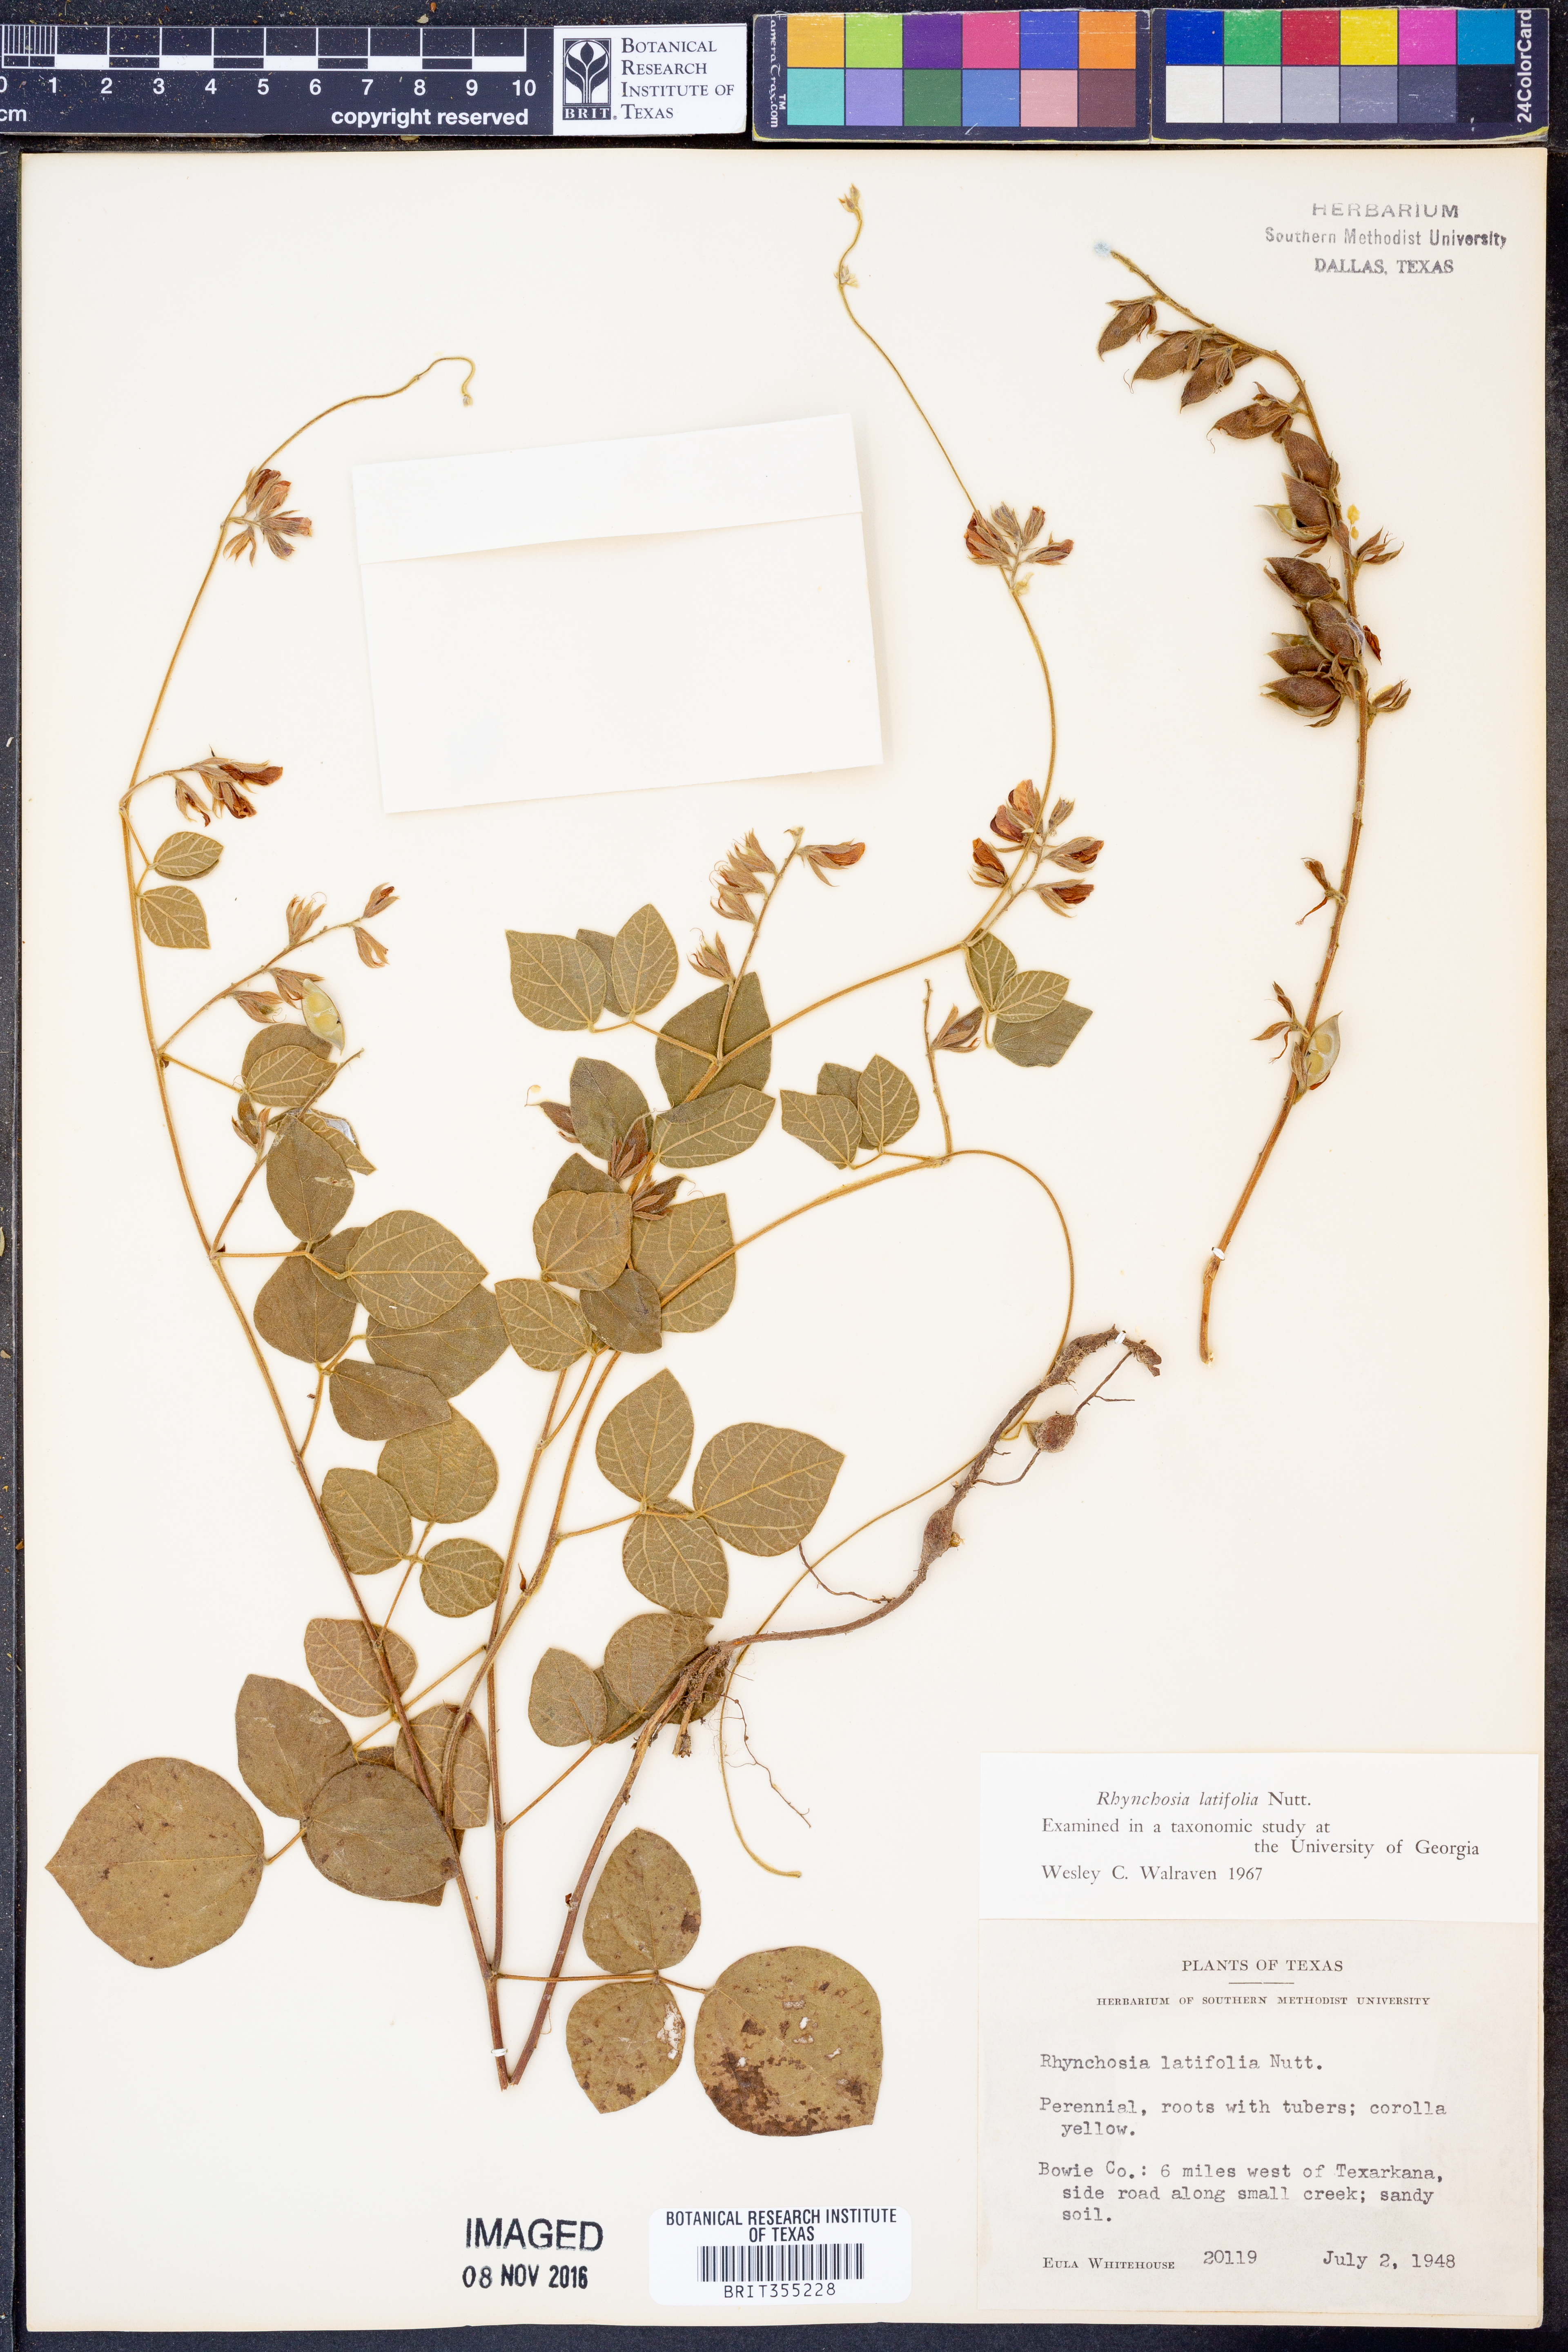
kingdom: Plantae
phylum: Tracheophyta
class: Magnoliopsida
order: Fabales
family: Fabaceae
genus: Rhynchosia
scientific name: Rhynchosia latifolia
